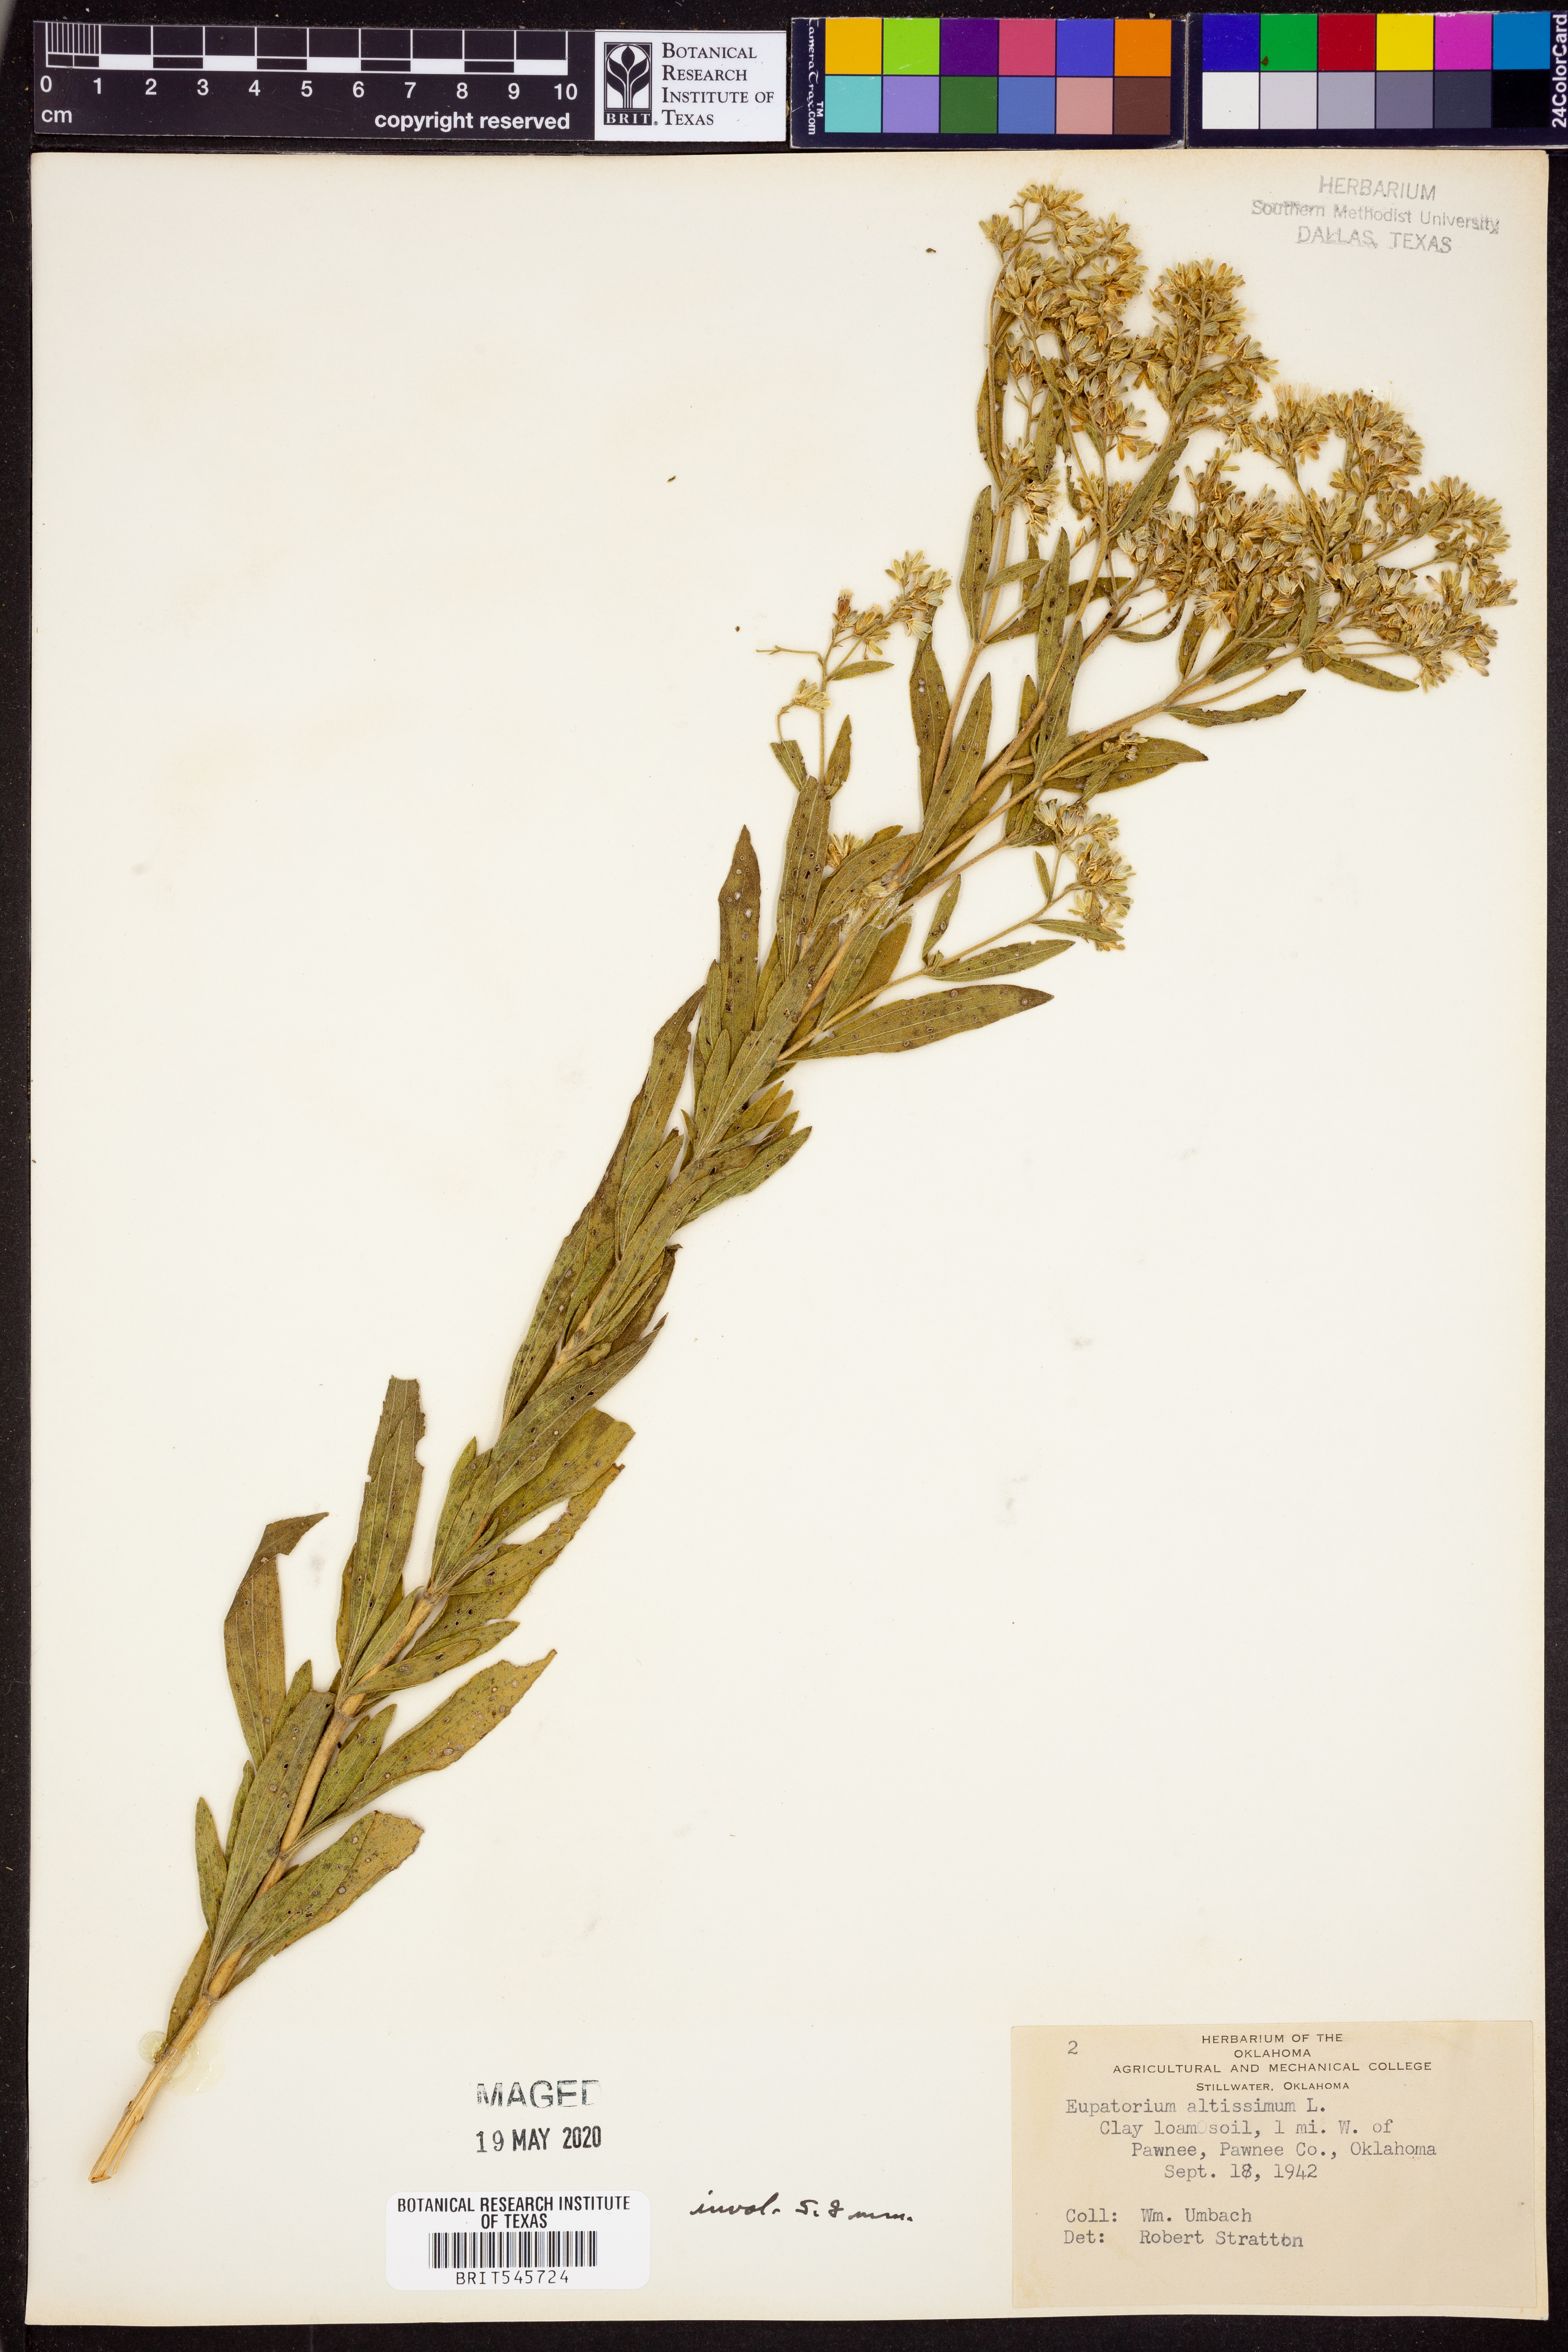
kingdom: Plantae
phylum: Tracheophyta
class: Magnoliopsida
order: Asterales
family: Asteraceae
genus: Eupatorium
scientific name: Eupatorium altissimum
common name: Tall thoroughwort
